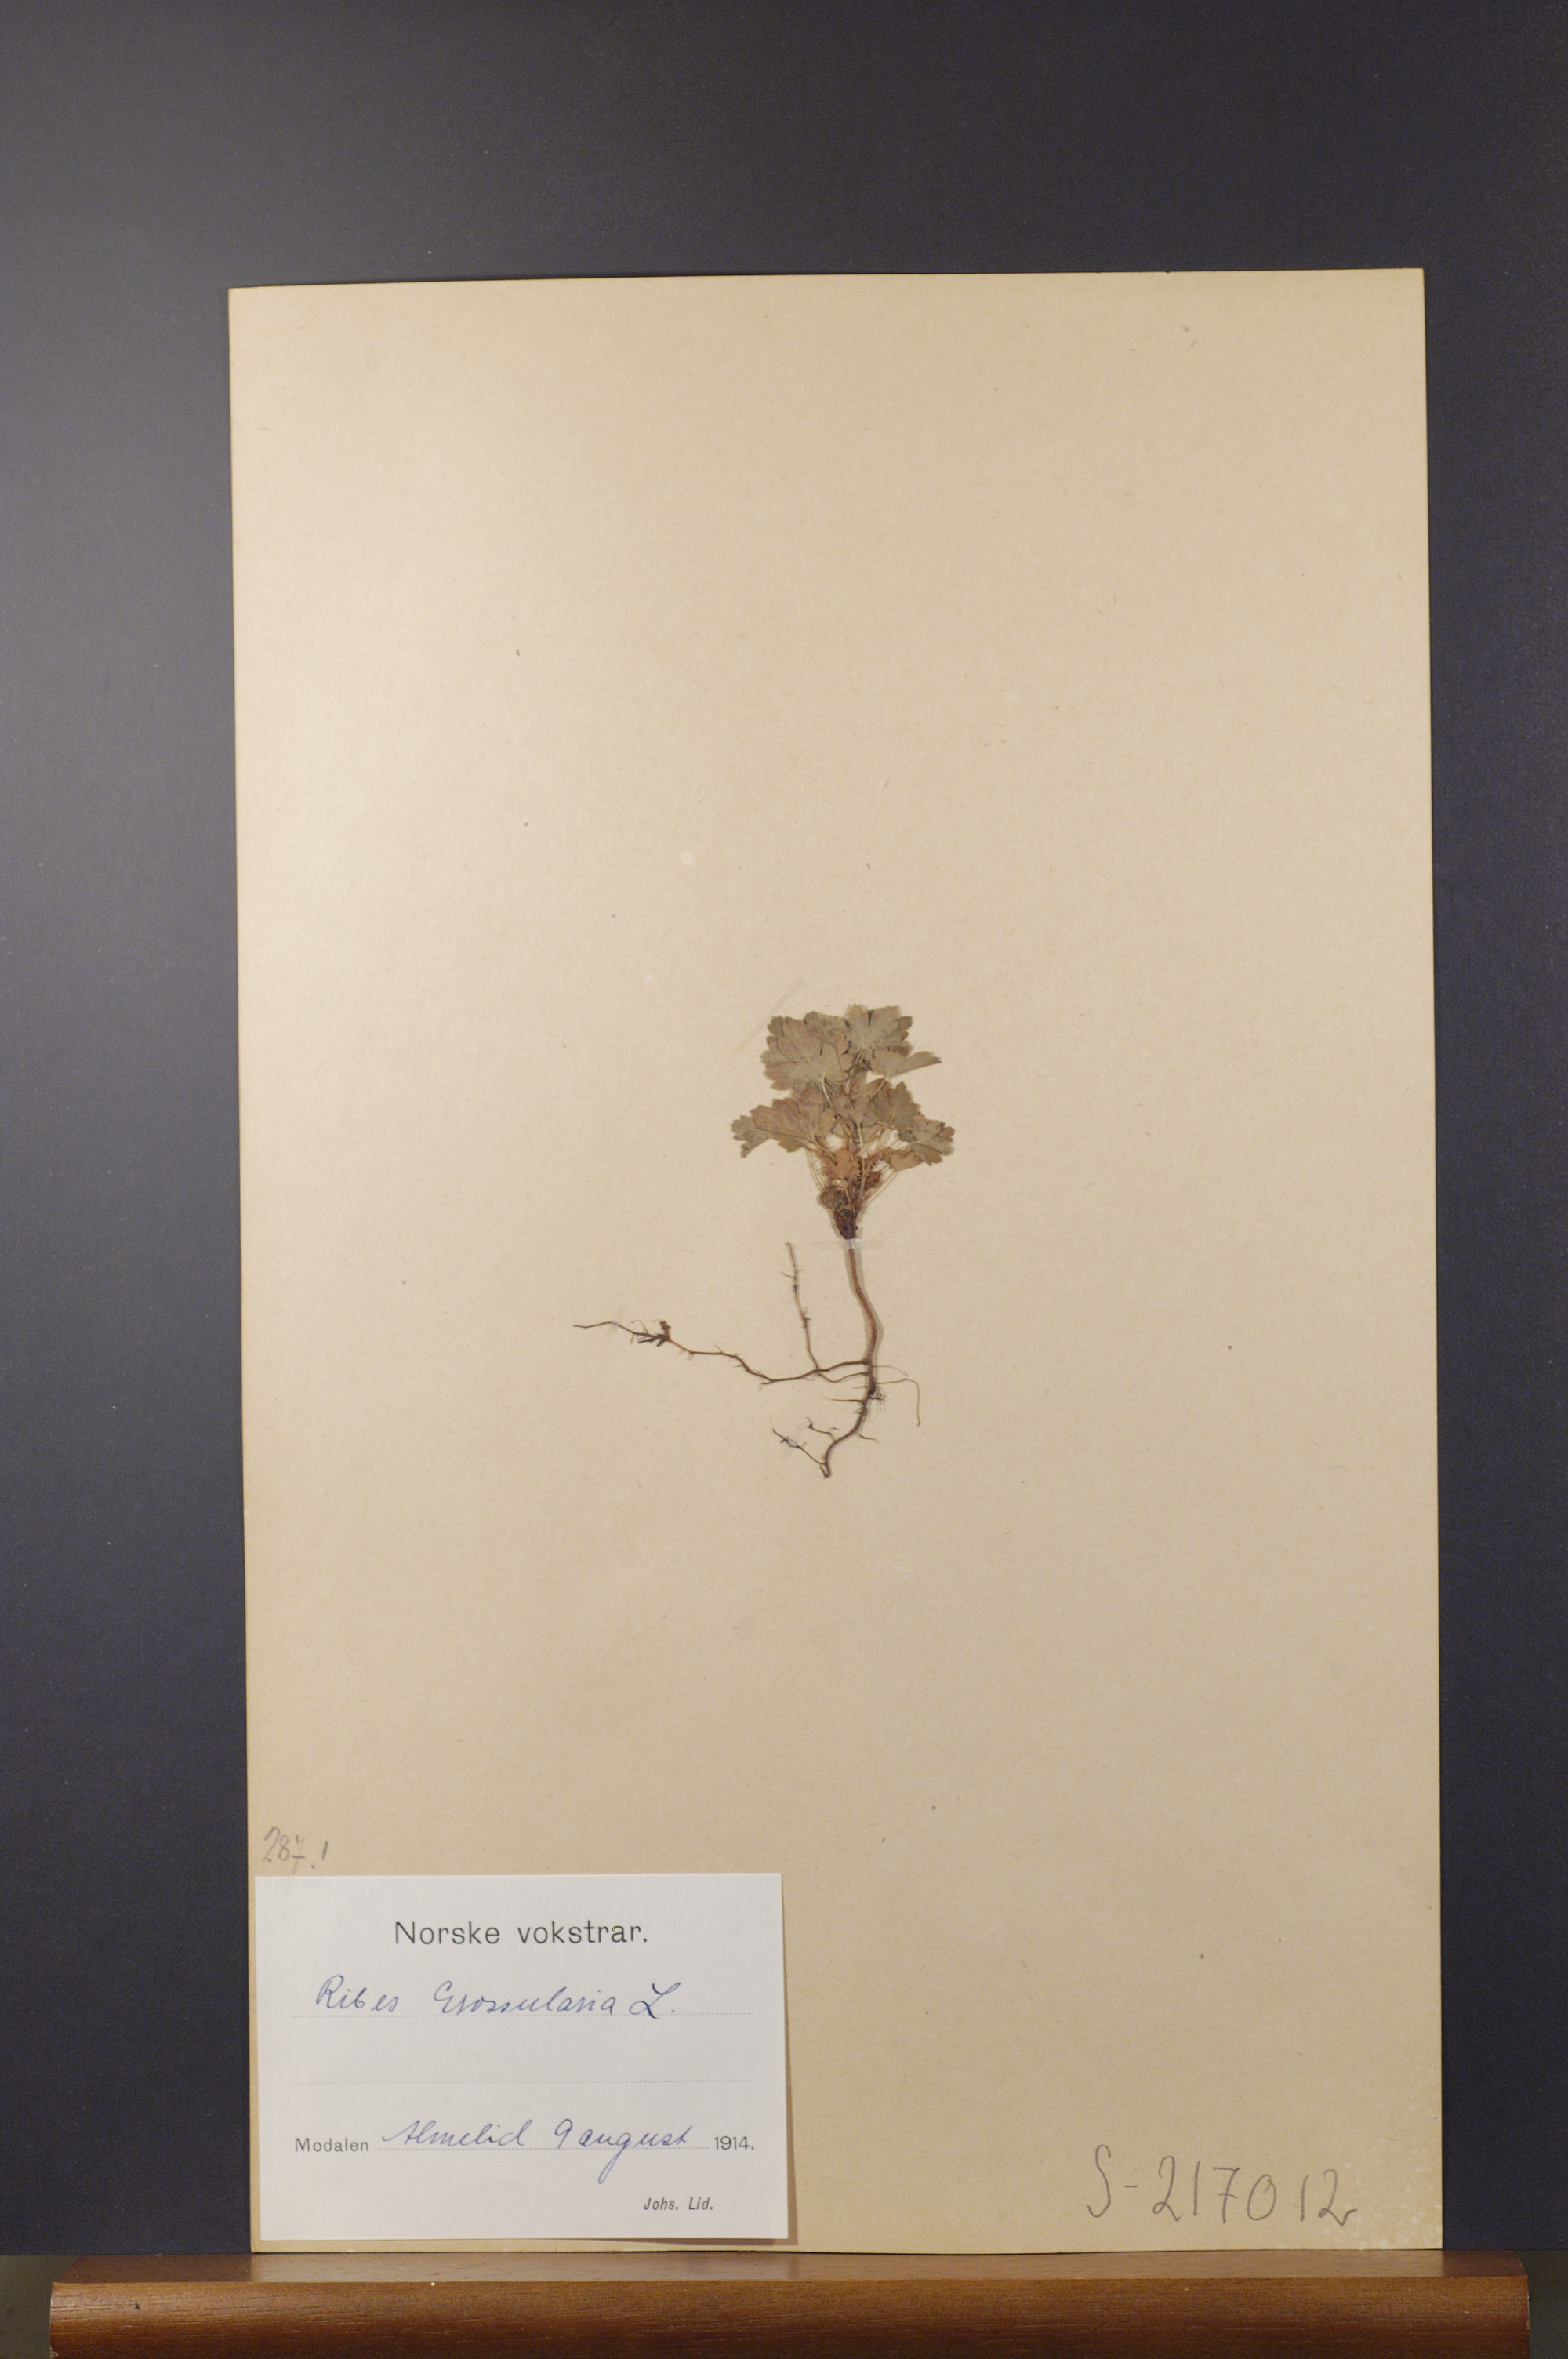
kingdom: Plantae
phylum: Tracheophyta
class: Magnoliopsida
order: Saxifragales
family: Grossulariaceae
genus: Ribes
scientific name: Ribes uva-crispa
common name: Gooseberry
